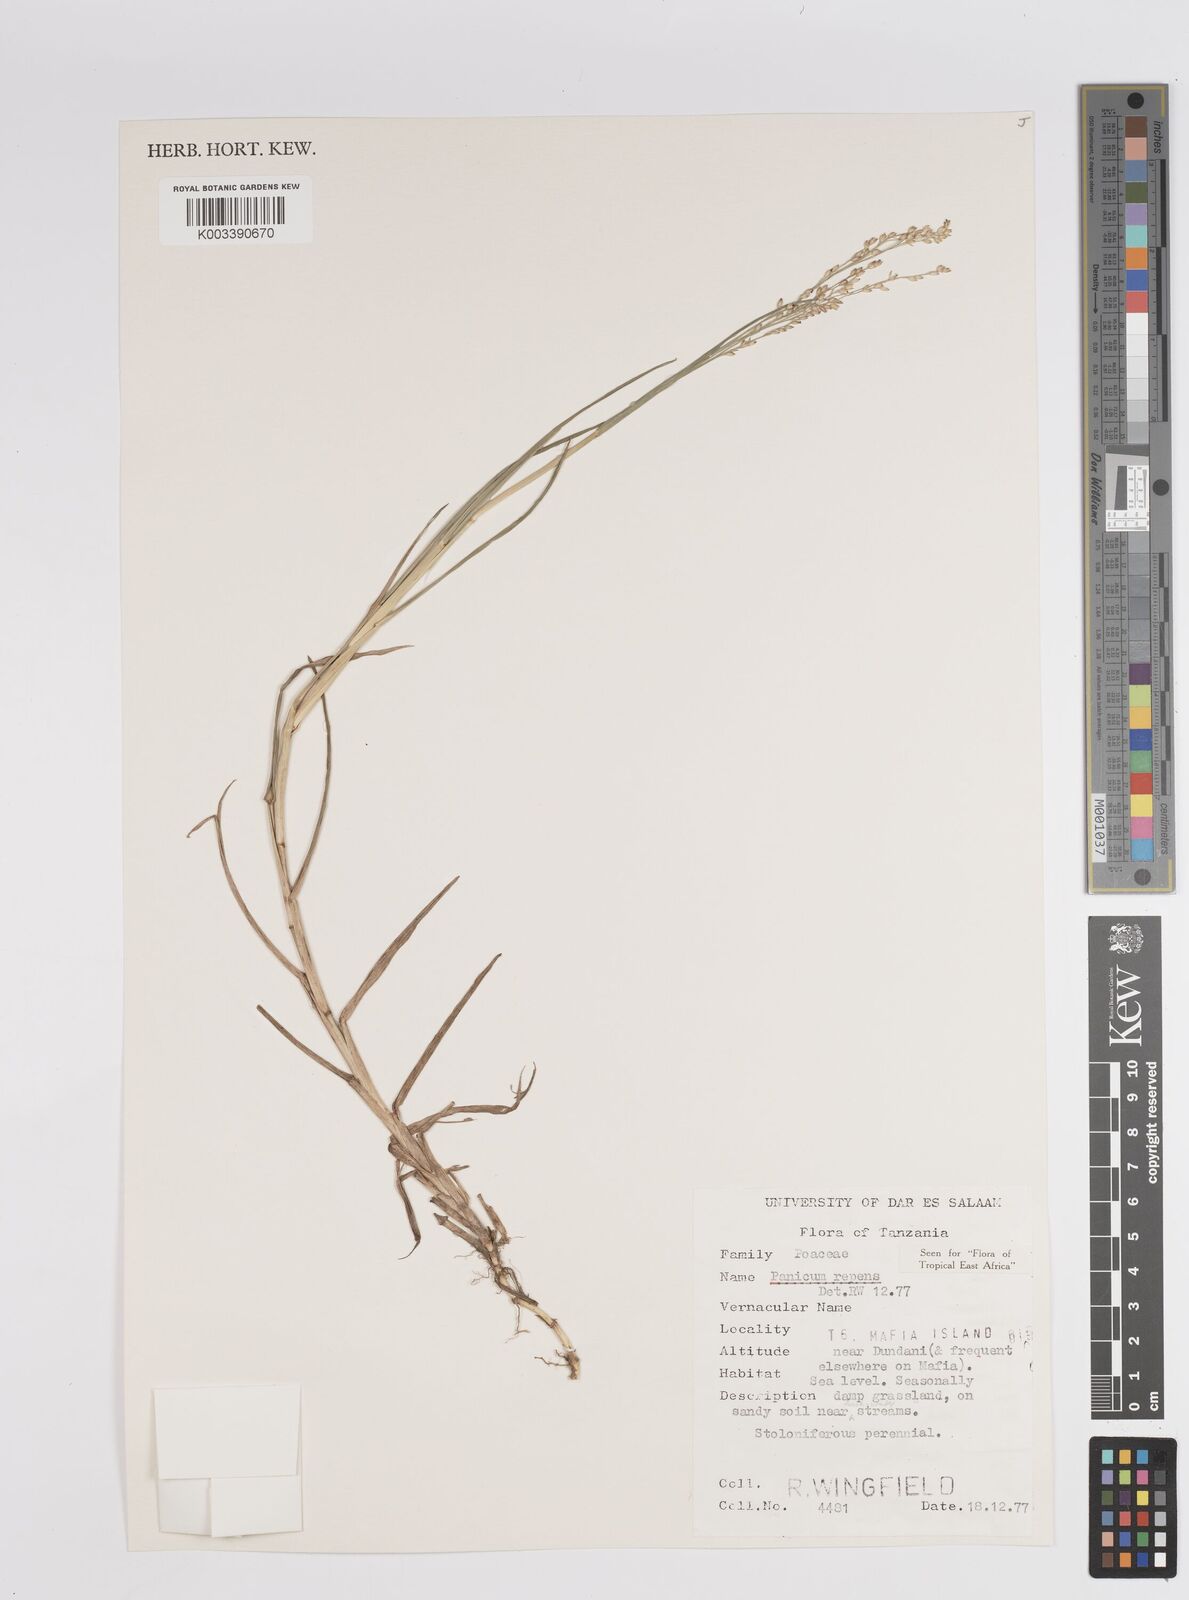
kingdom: Plantae
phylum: Tracheophyta
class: Liliopsida
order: Poales
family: Poaceae
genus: Panicum
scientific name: Panicum repens
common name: Torpedo grass
